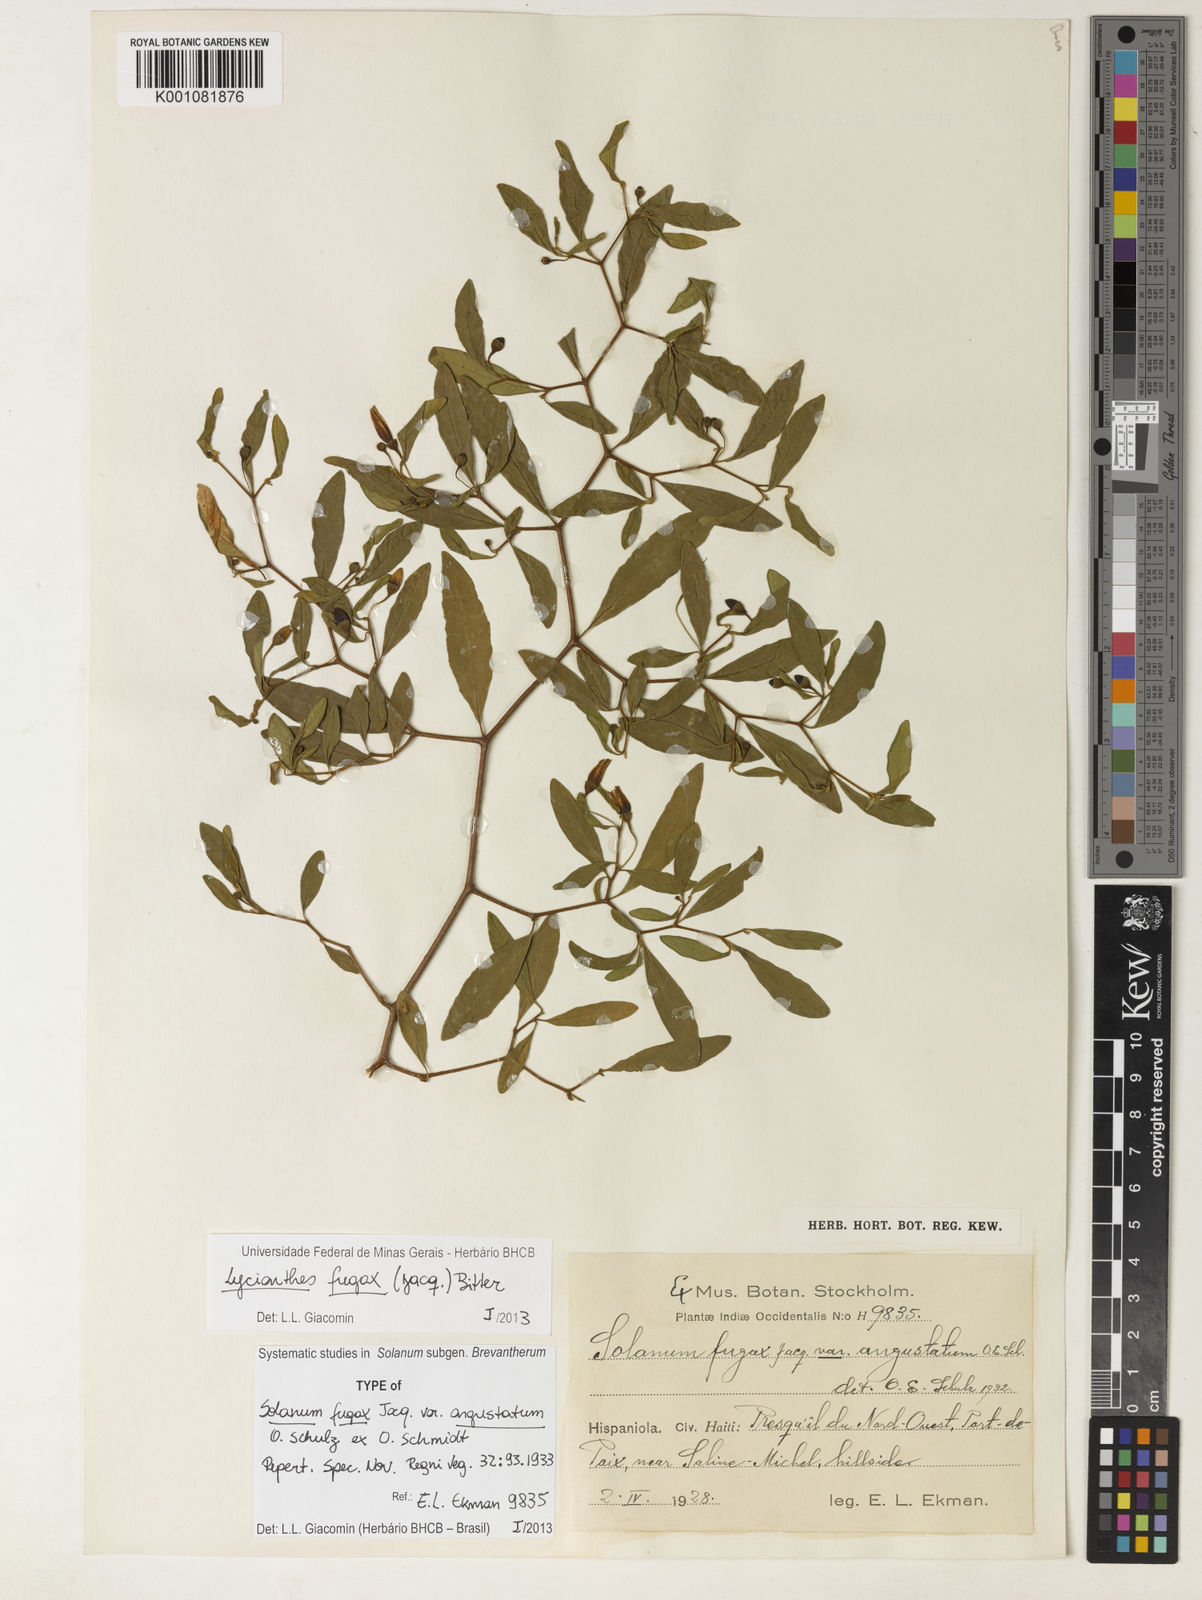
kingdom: Plantae
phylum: Tracheophyta
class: Magnoliopsida
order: Solanales
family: Solanaceae
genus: Lycianthes
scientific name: Lycianthes fugax
